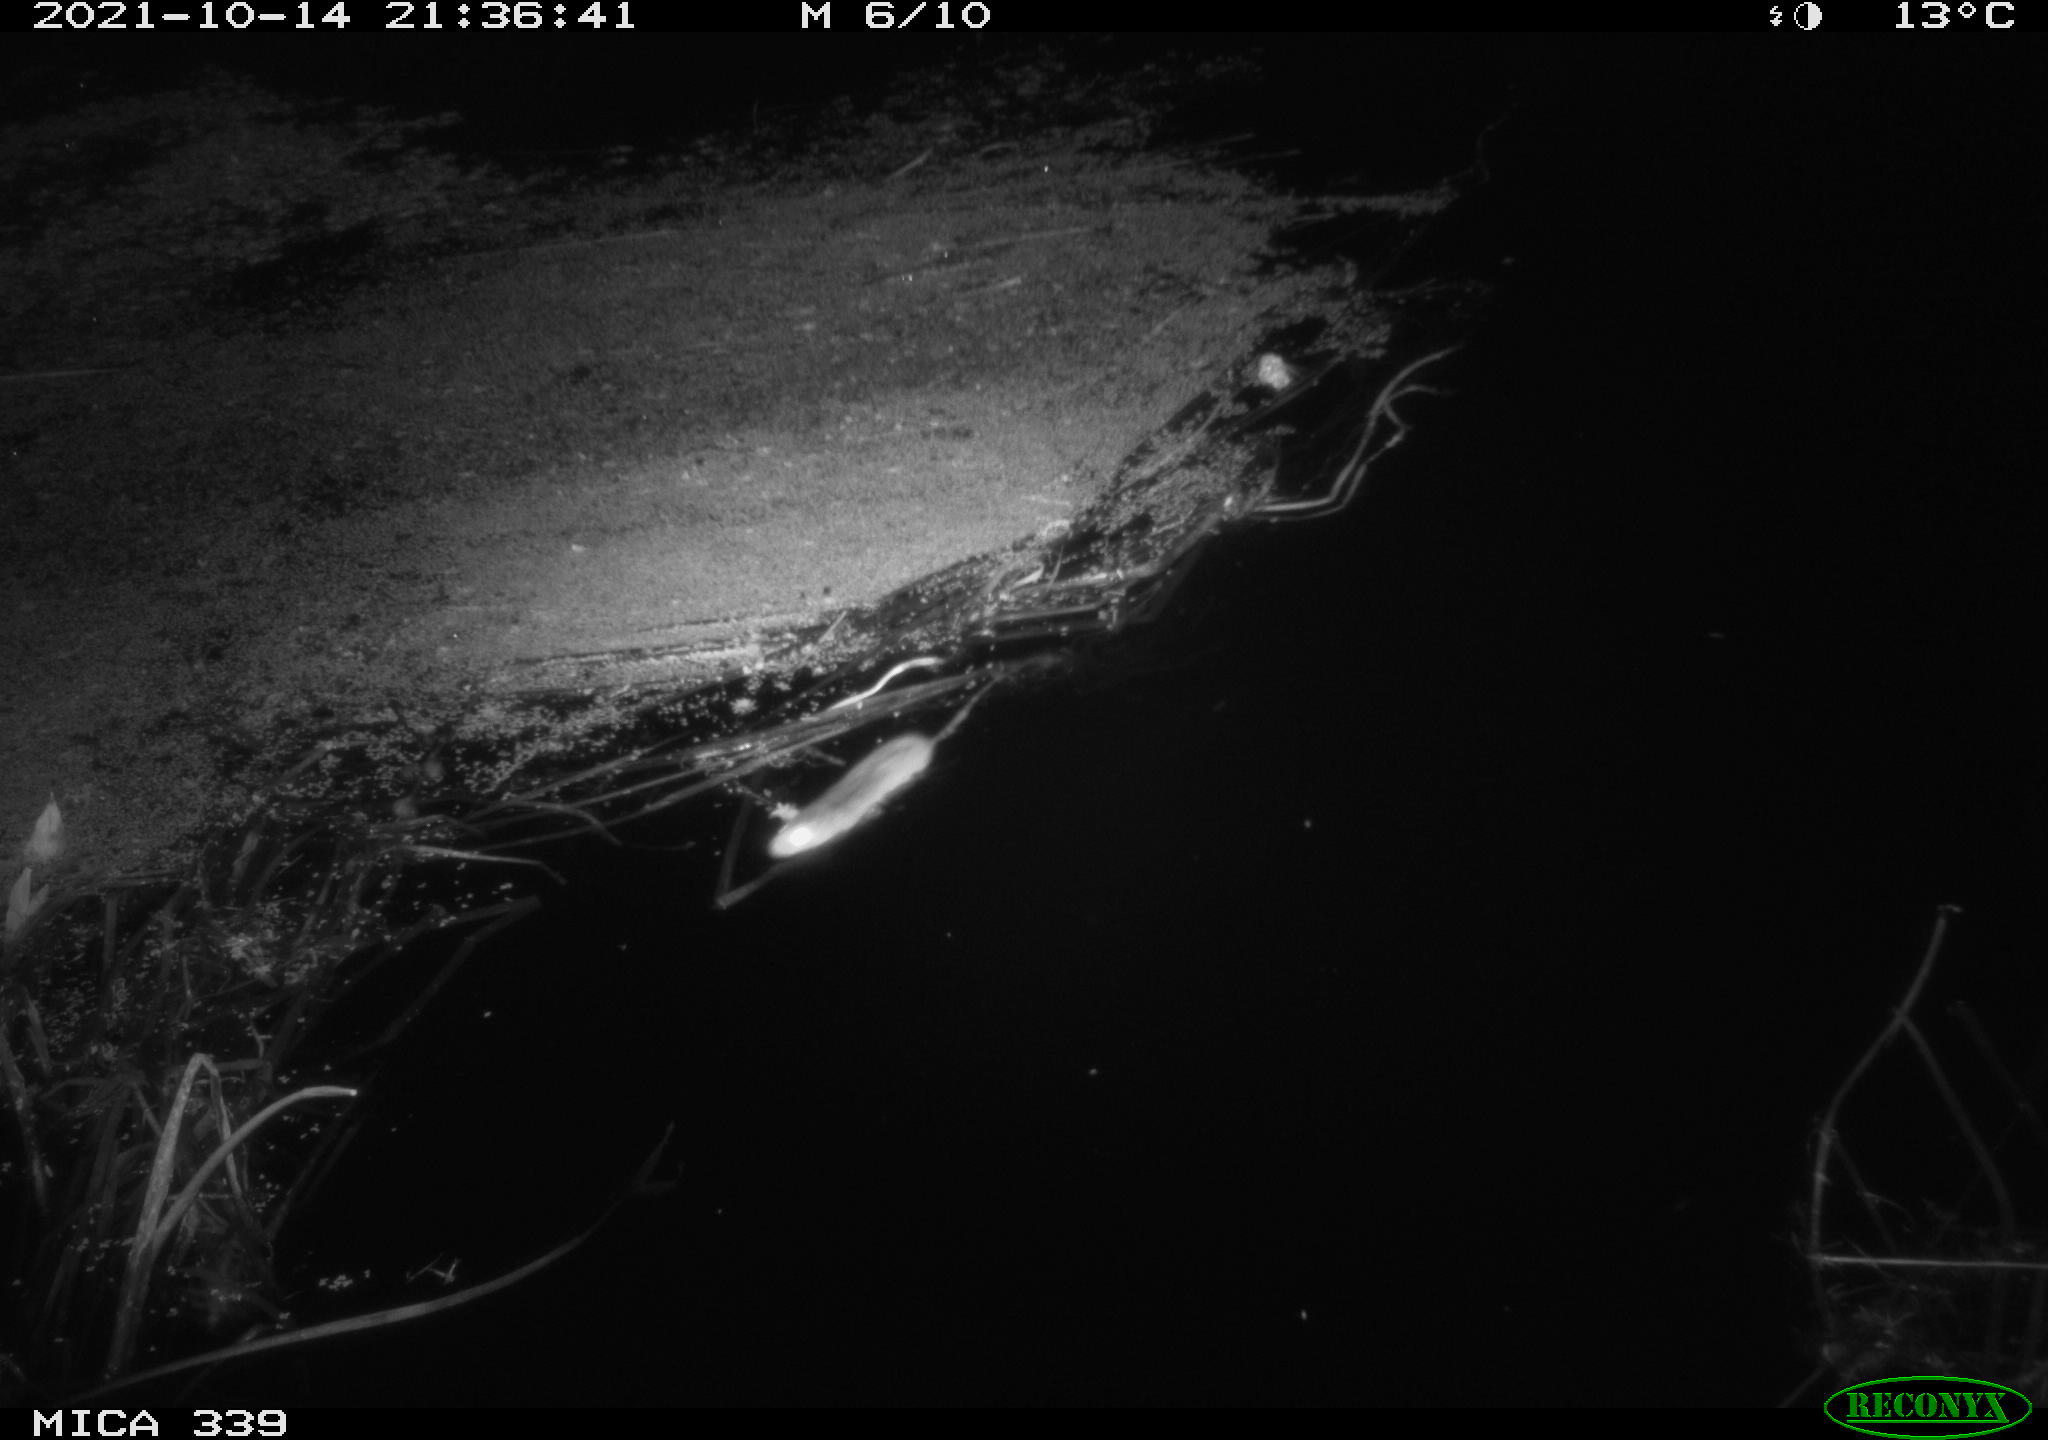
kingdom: Animalia
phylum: Chordata
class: Mammalia
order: Rodentia
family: Muridae
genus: Rattus
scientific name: Rattus norvegicus
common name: Brown rat
